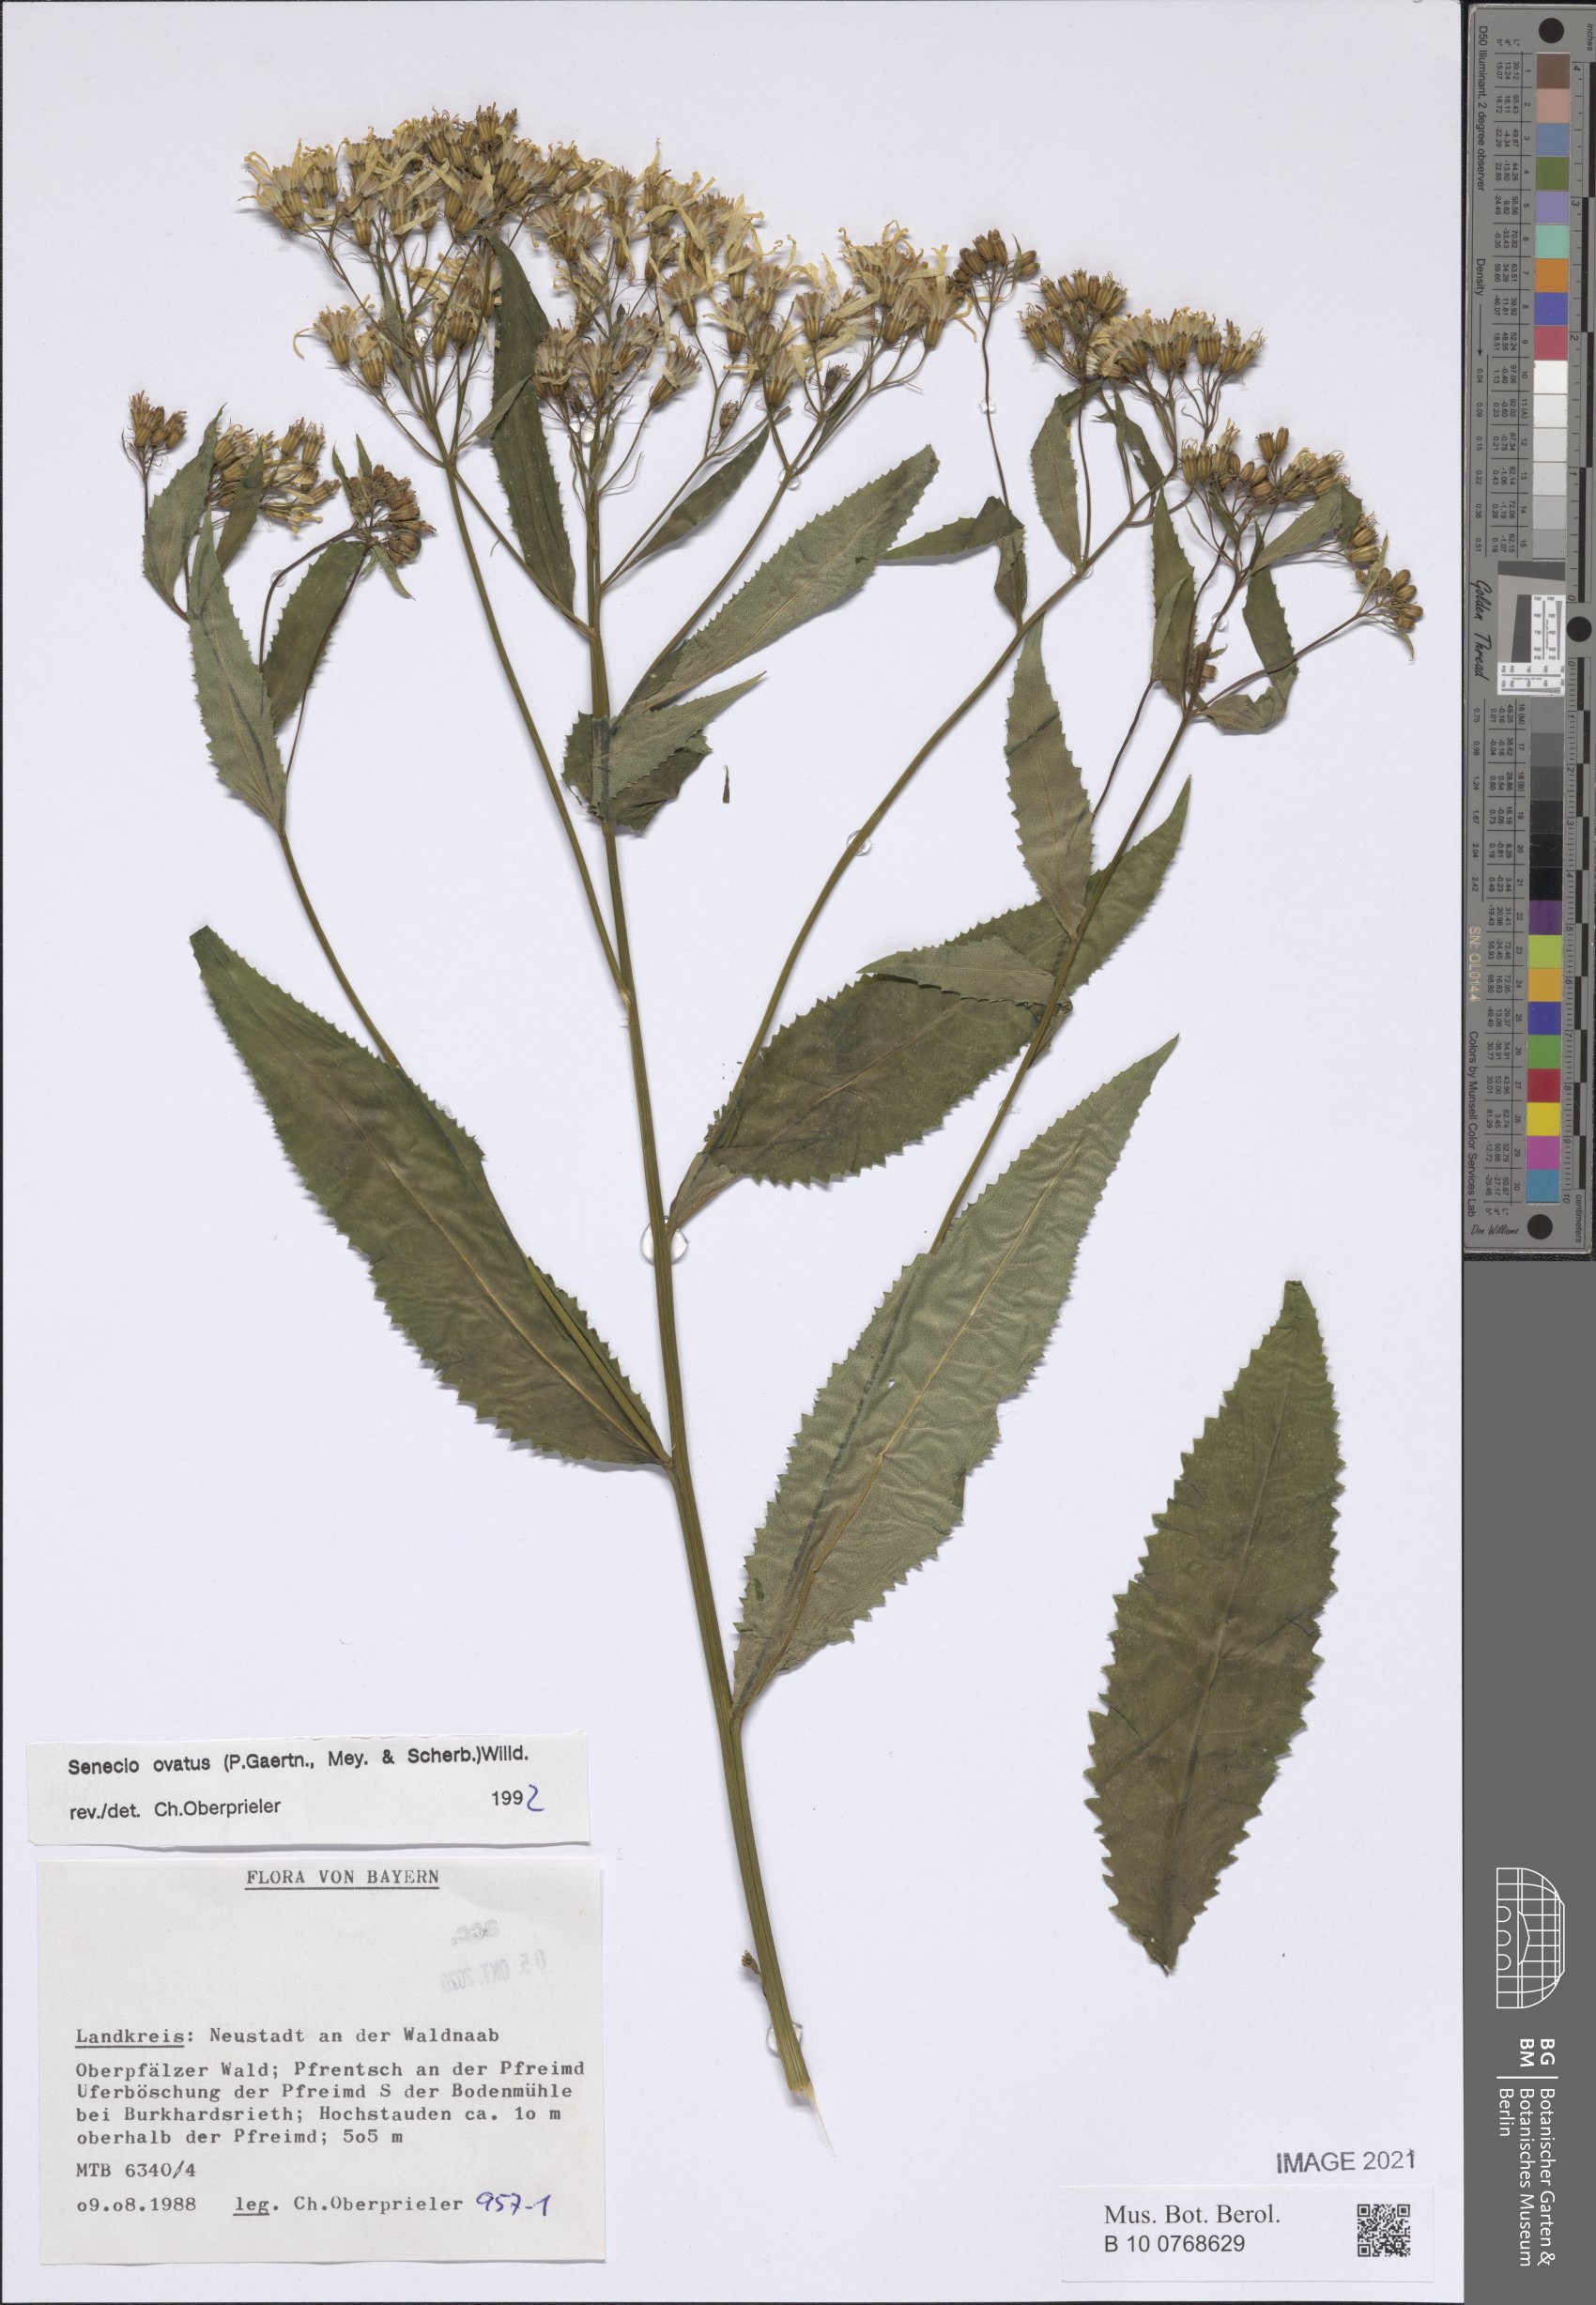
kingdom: Plantae
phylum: Tracheophyta
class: Magnoliopsida
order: Asterales
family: Asteraceae
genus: Senecio
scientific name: Senecio ovatus
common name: Wood ragwort
